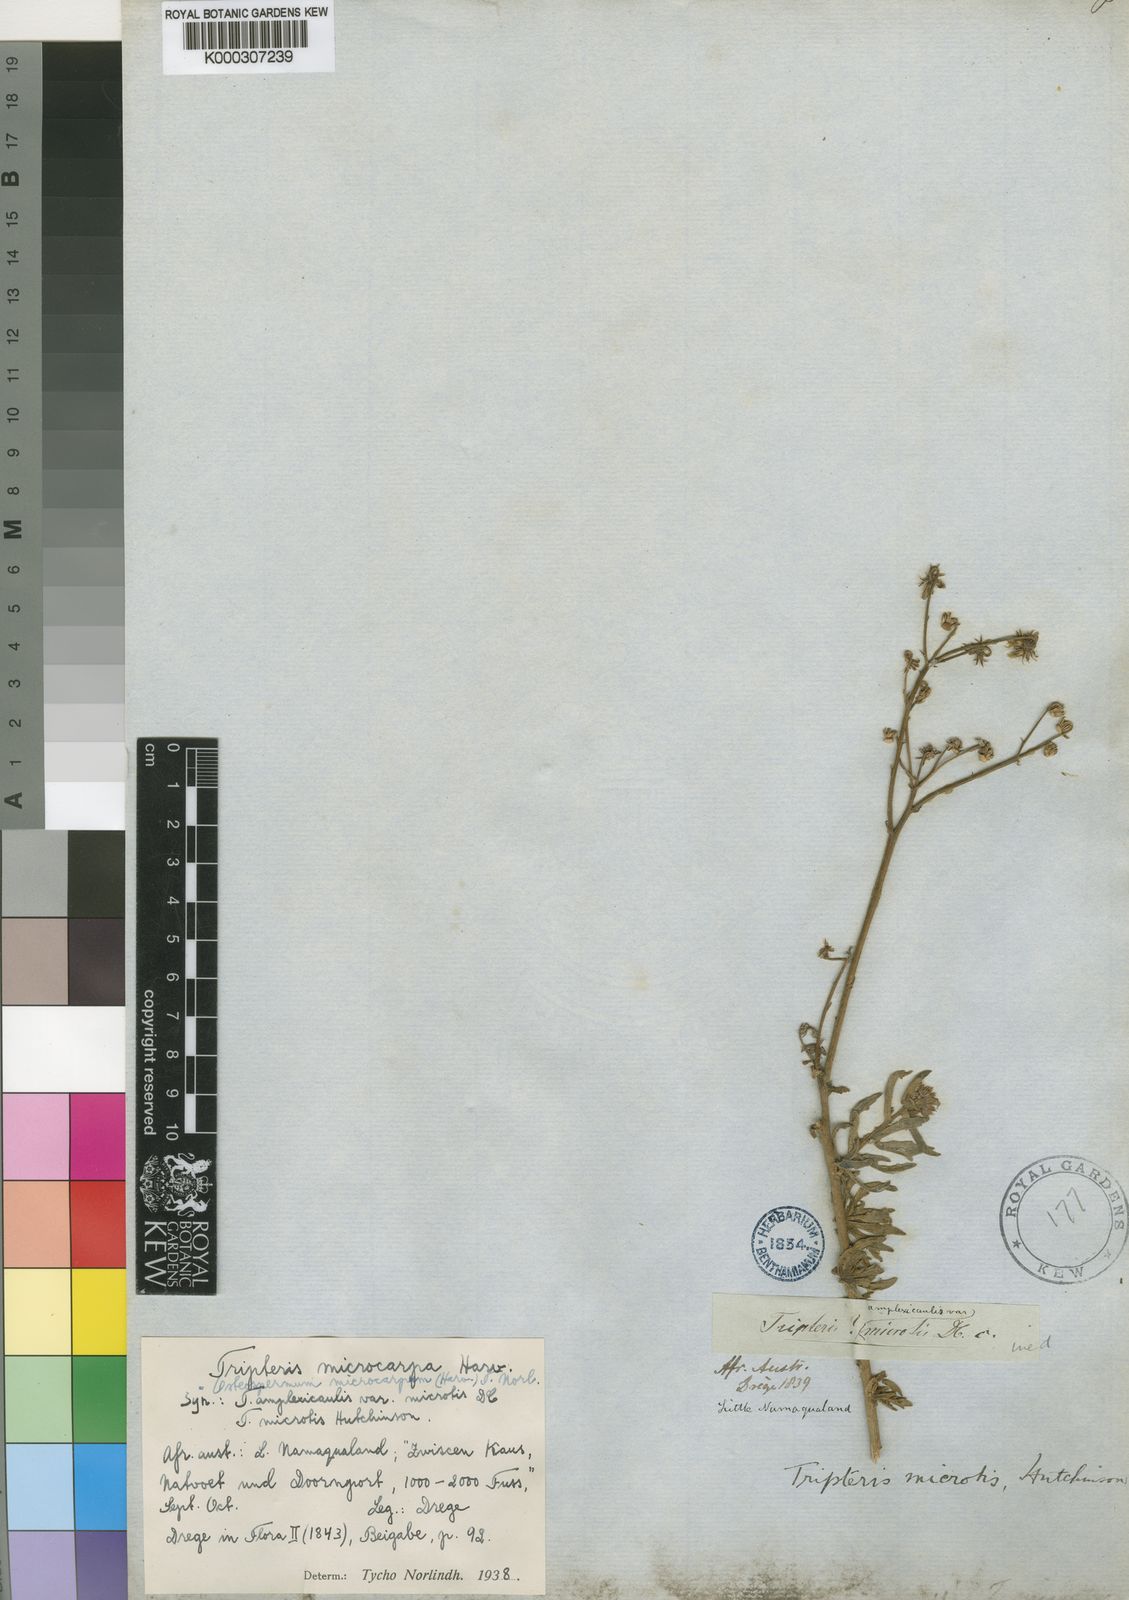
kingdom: Plantae
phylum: Tracheophyta
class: Magnoliopsida
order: Asterales
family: Asteraceae
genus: Osteospermum
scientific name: Osteospermum microcarpum
